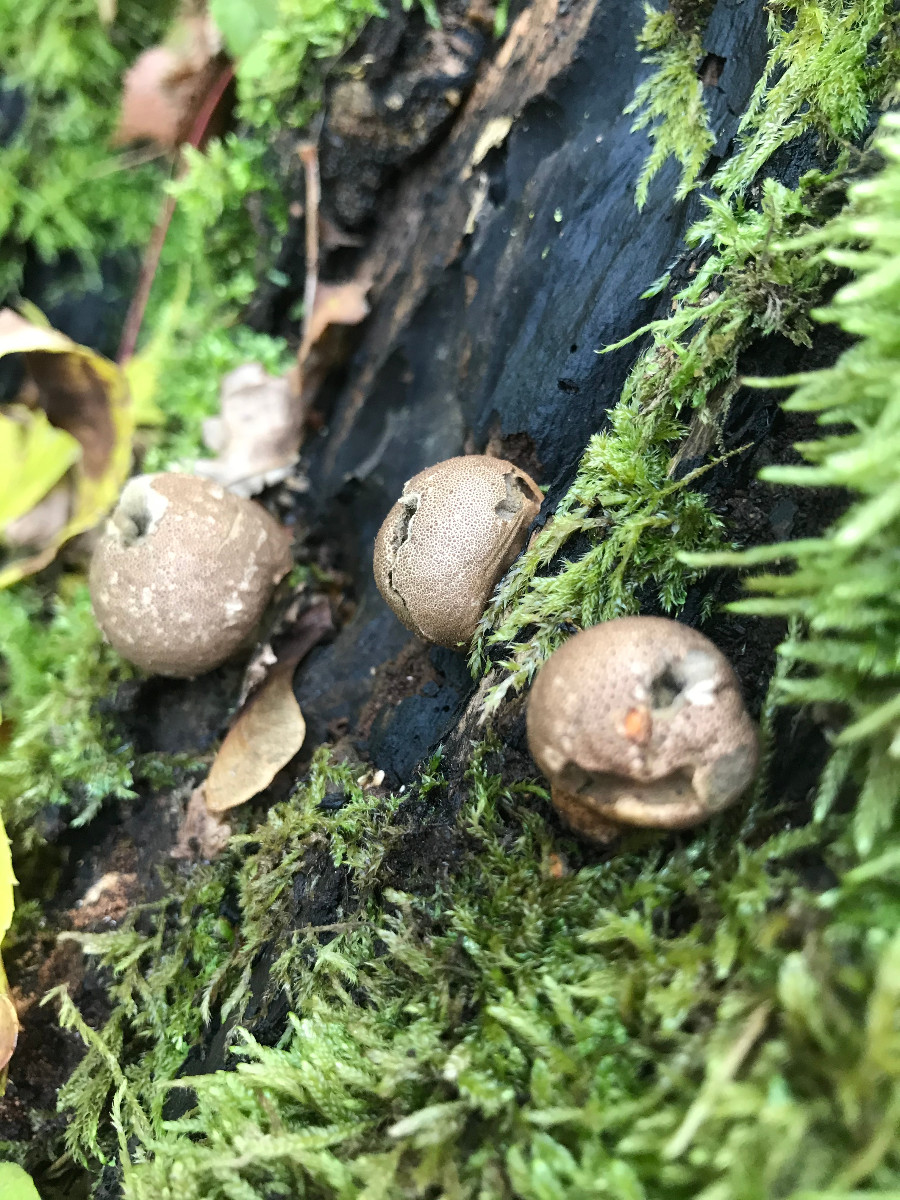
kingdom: Fungi
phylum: Basidiomycota
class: Agaricomycetes
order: Agaricales
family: Lycoperdaceae
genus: Apioperdon
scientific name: Apioperdon pyriforme
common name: pære-støvbold
